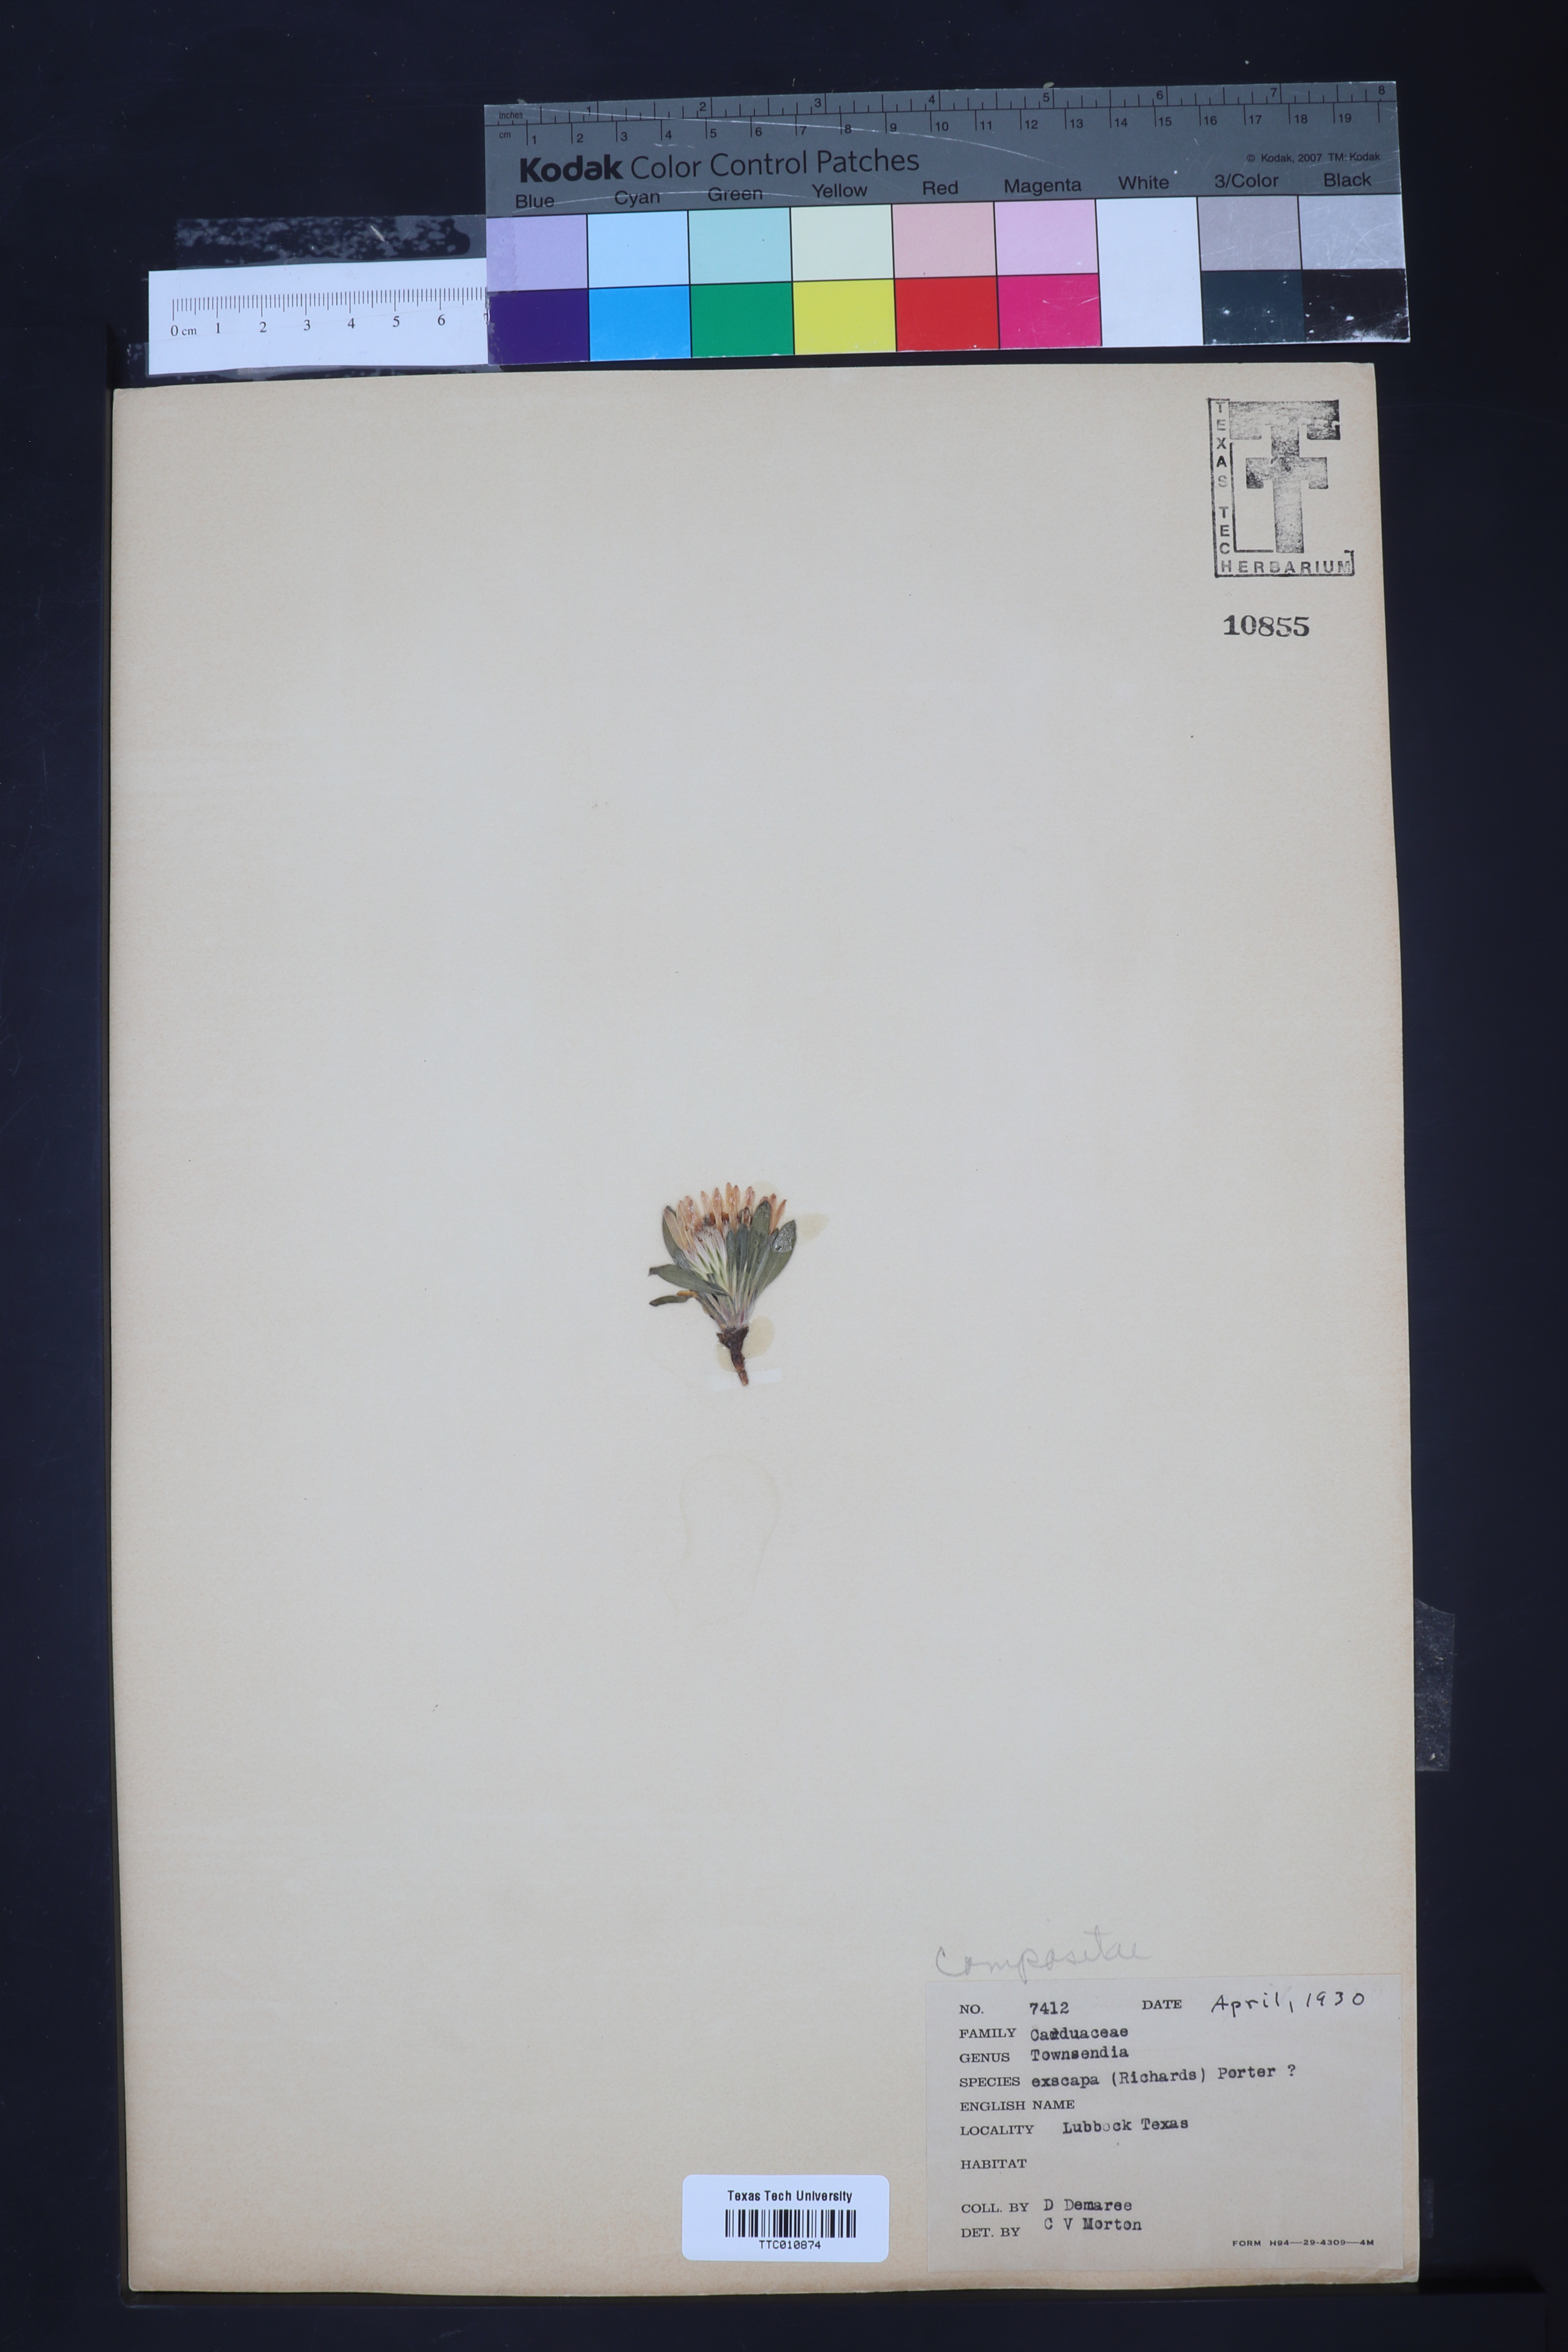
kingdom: Plantae
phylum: Tracheophyta
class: Magnoliopsida
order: Asterales
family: Asteraceae
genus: Townsendia
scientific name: Townsendia exscapa
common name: Dwarf townsendia
